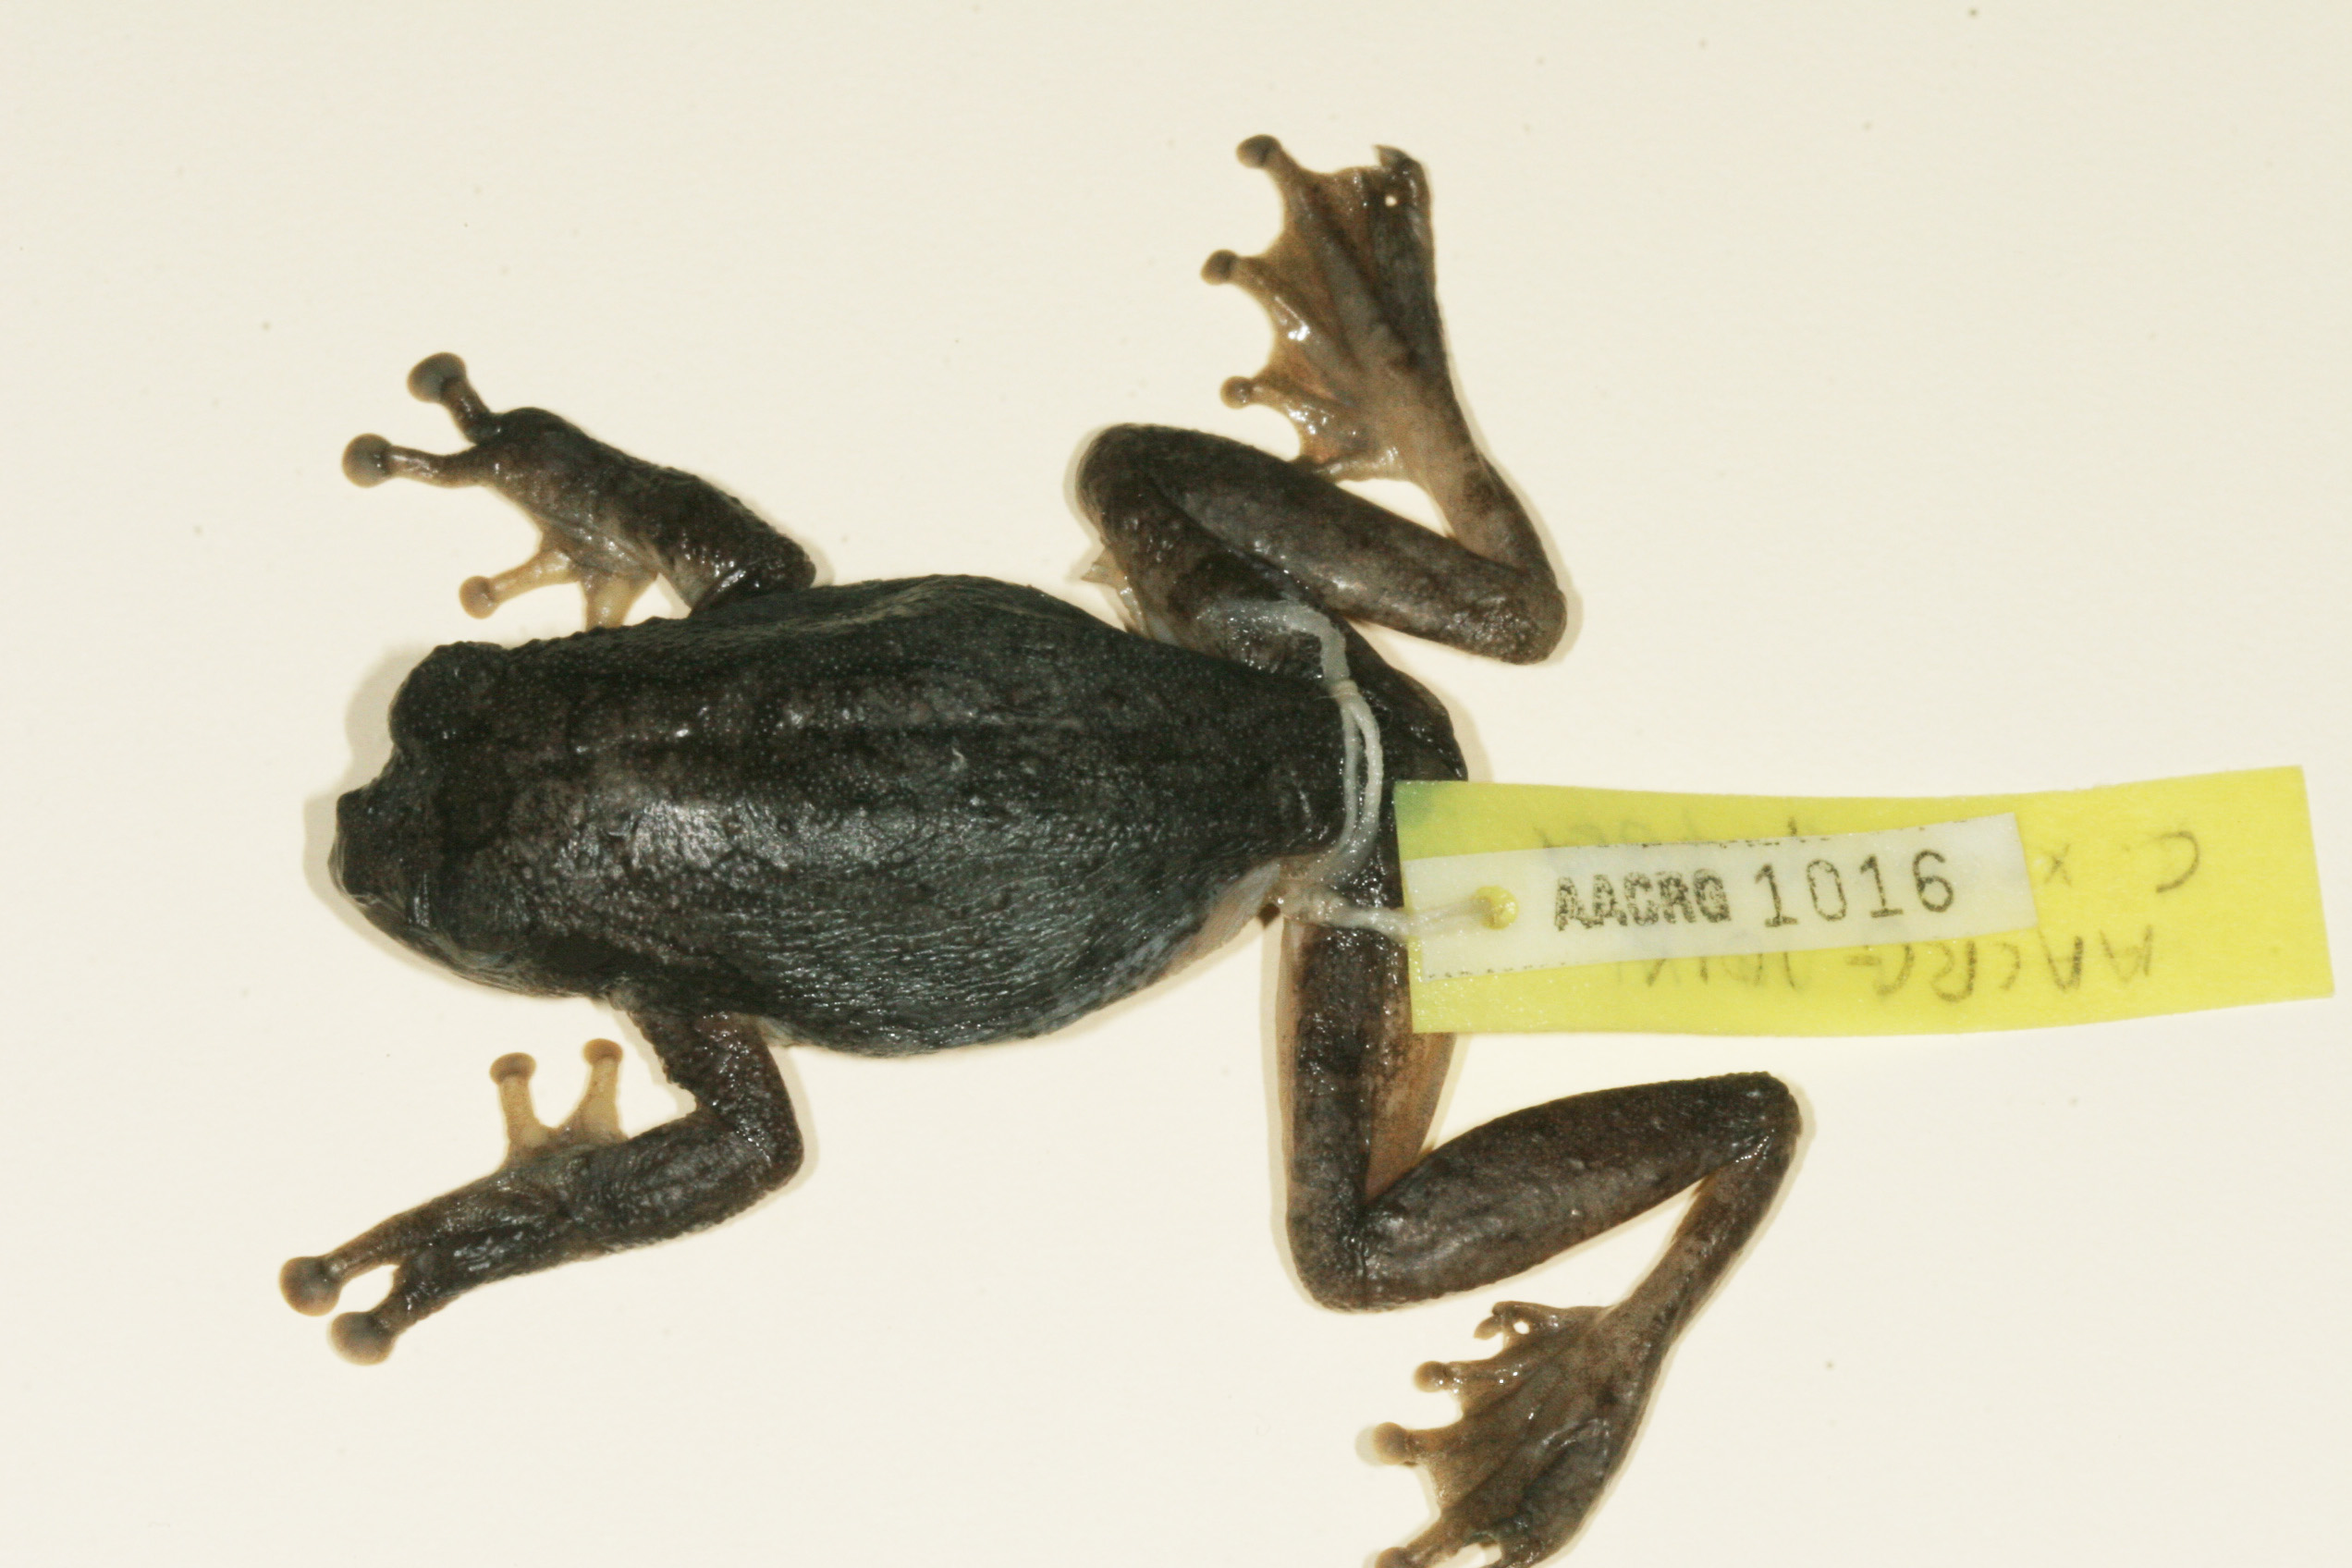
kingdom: Animalia
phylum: Chordata
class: Amphibia
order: Anura
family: Rhacophoridae
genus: Chiromantis
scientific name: Chiromantis xerampelina
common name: African gray treefrog
